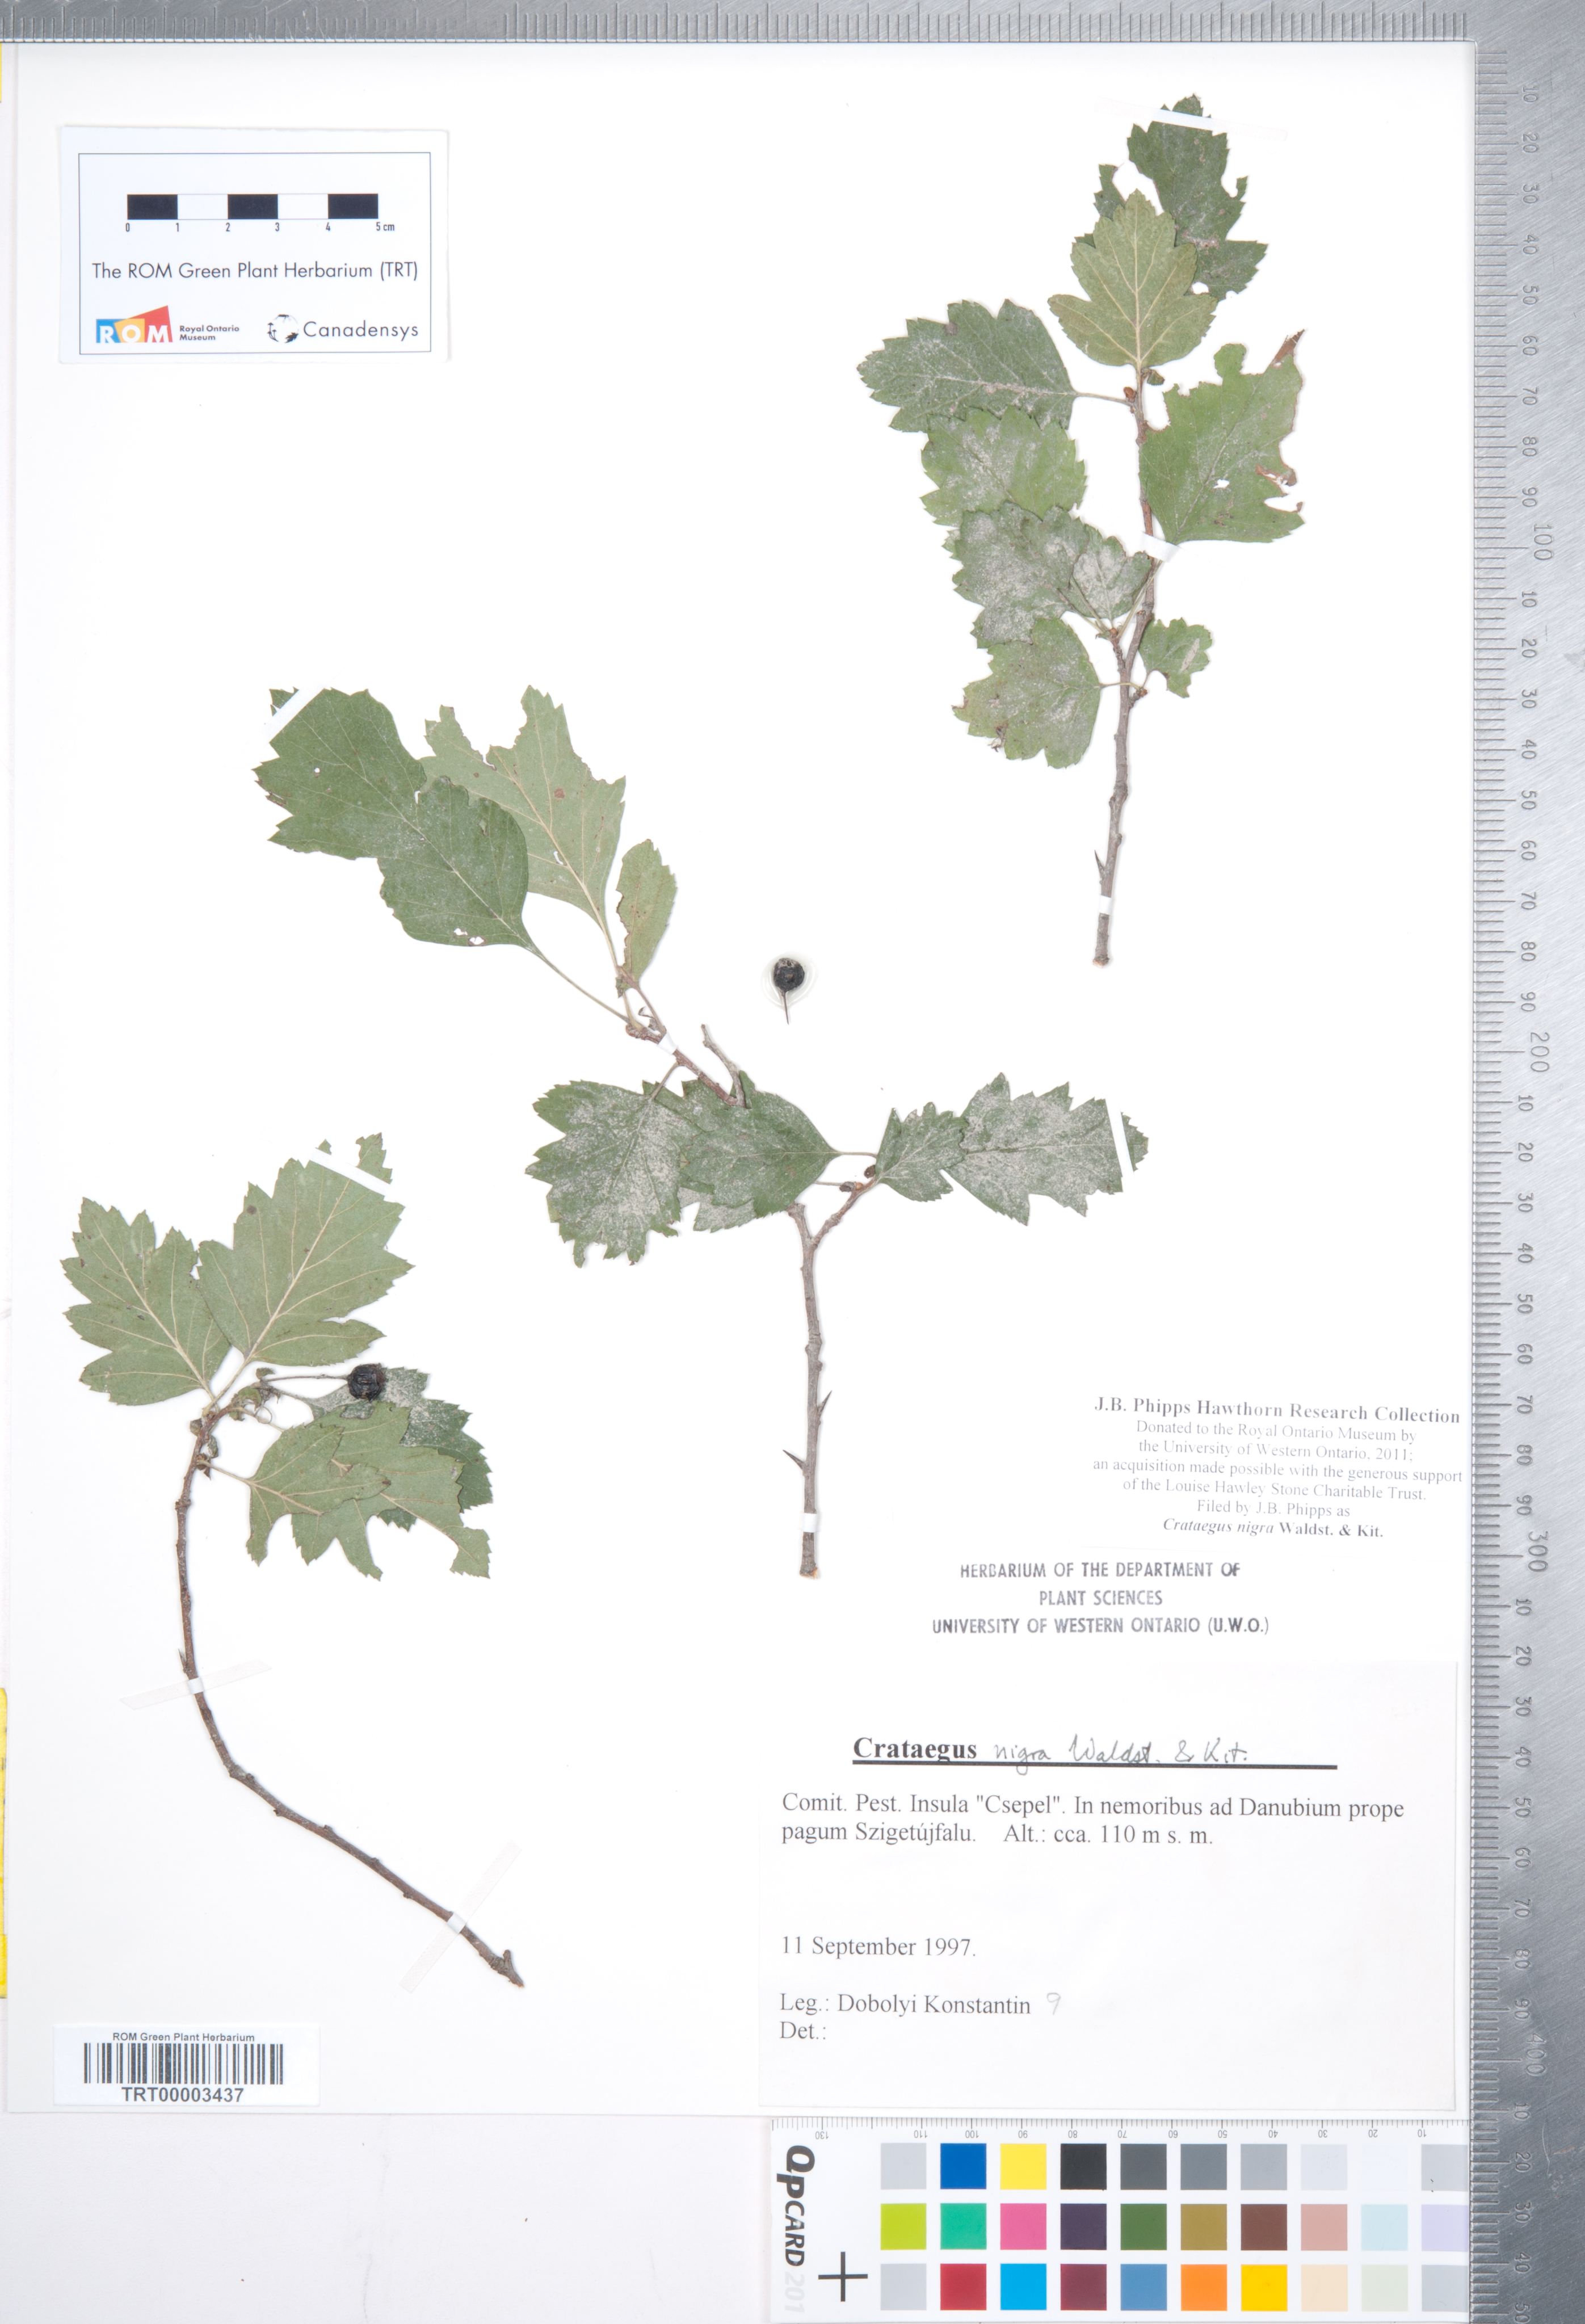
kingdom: Plantae
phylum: Tracheophyta
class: Magnoliopsida
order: Rosales
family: Rosaceae
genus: Crataegus
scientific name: Crataegus nigra
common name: Hungarian thorn
